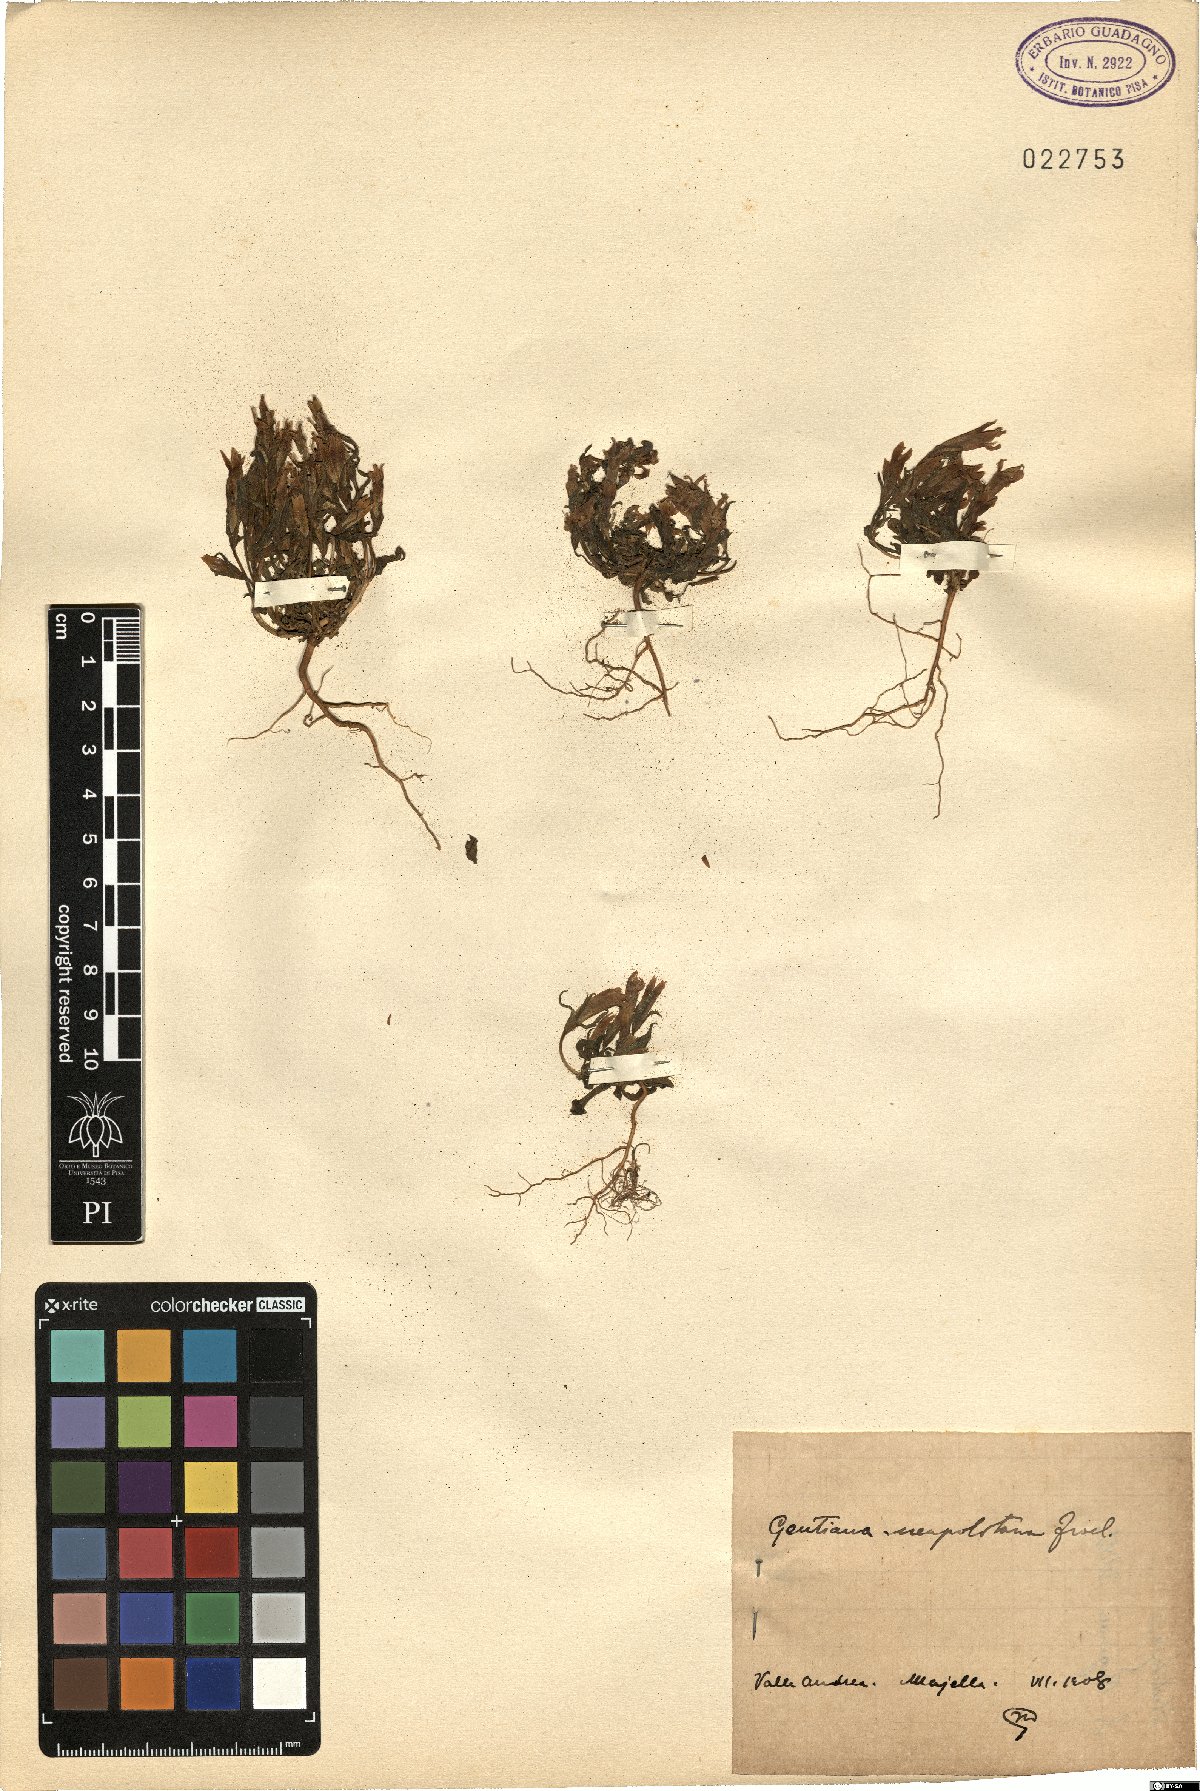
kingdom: Plantae
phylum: Tracheophyta
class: Magnoliopsida
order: Gentianales
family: Gentianaceae
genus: Gentianella
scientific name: Gentianella columnae
